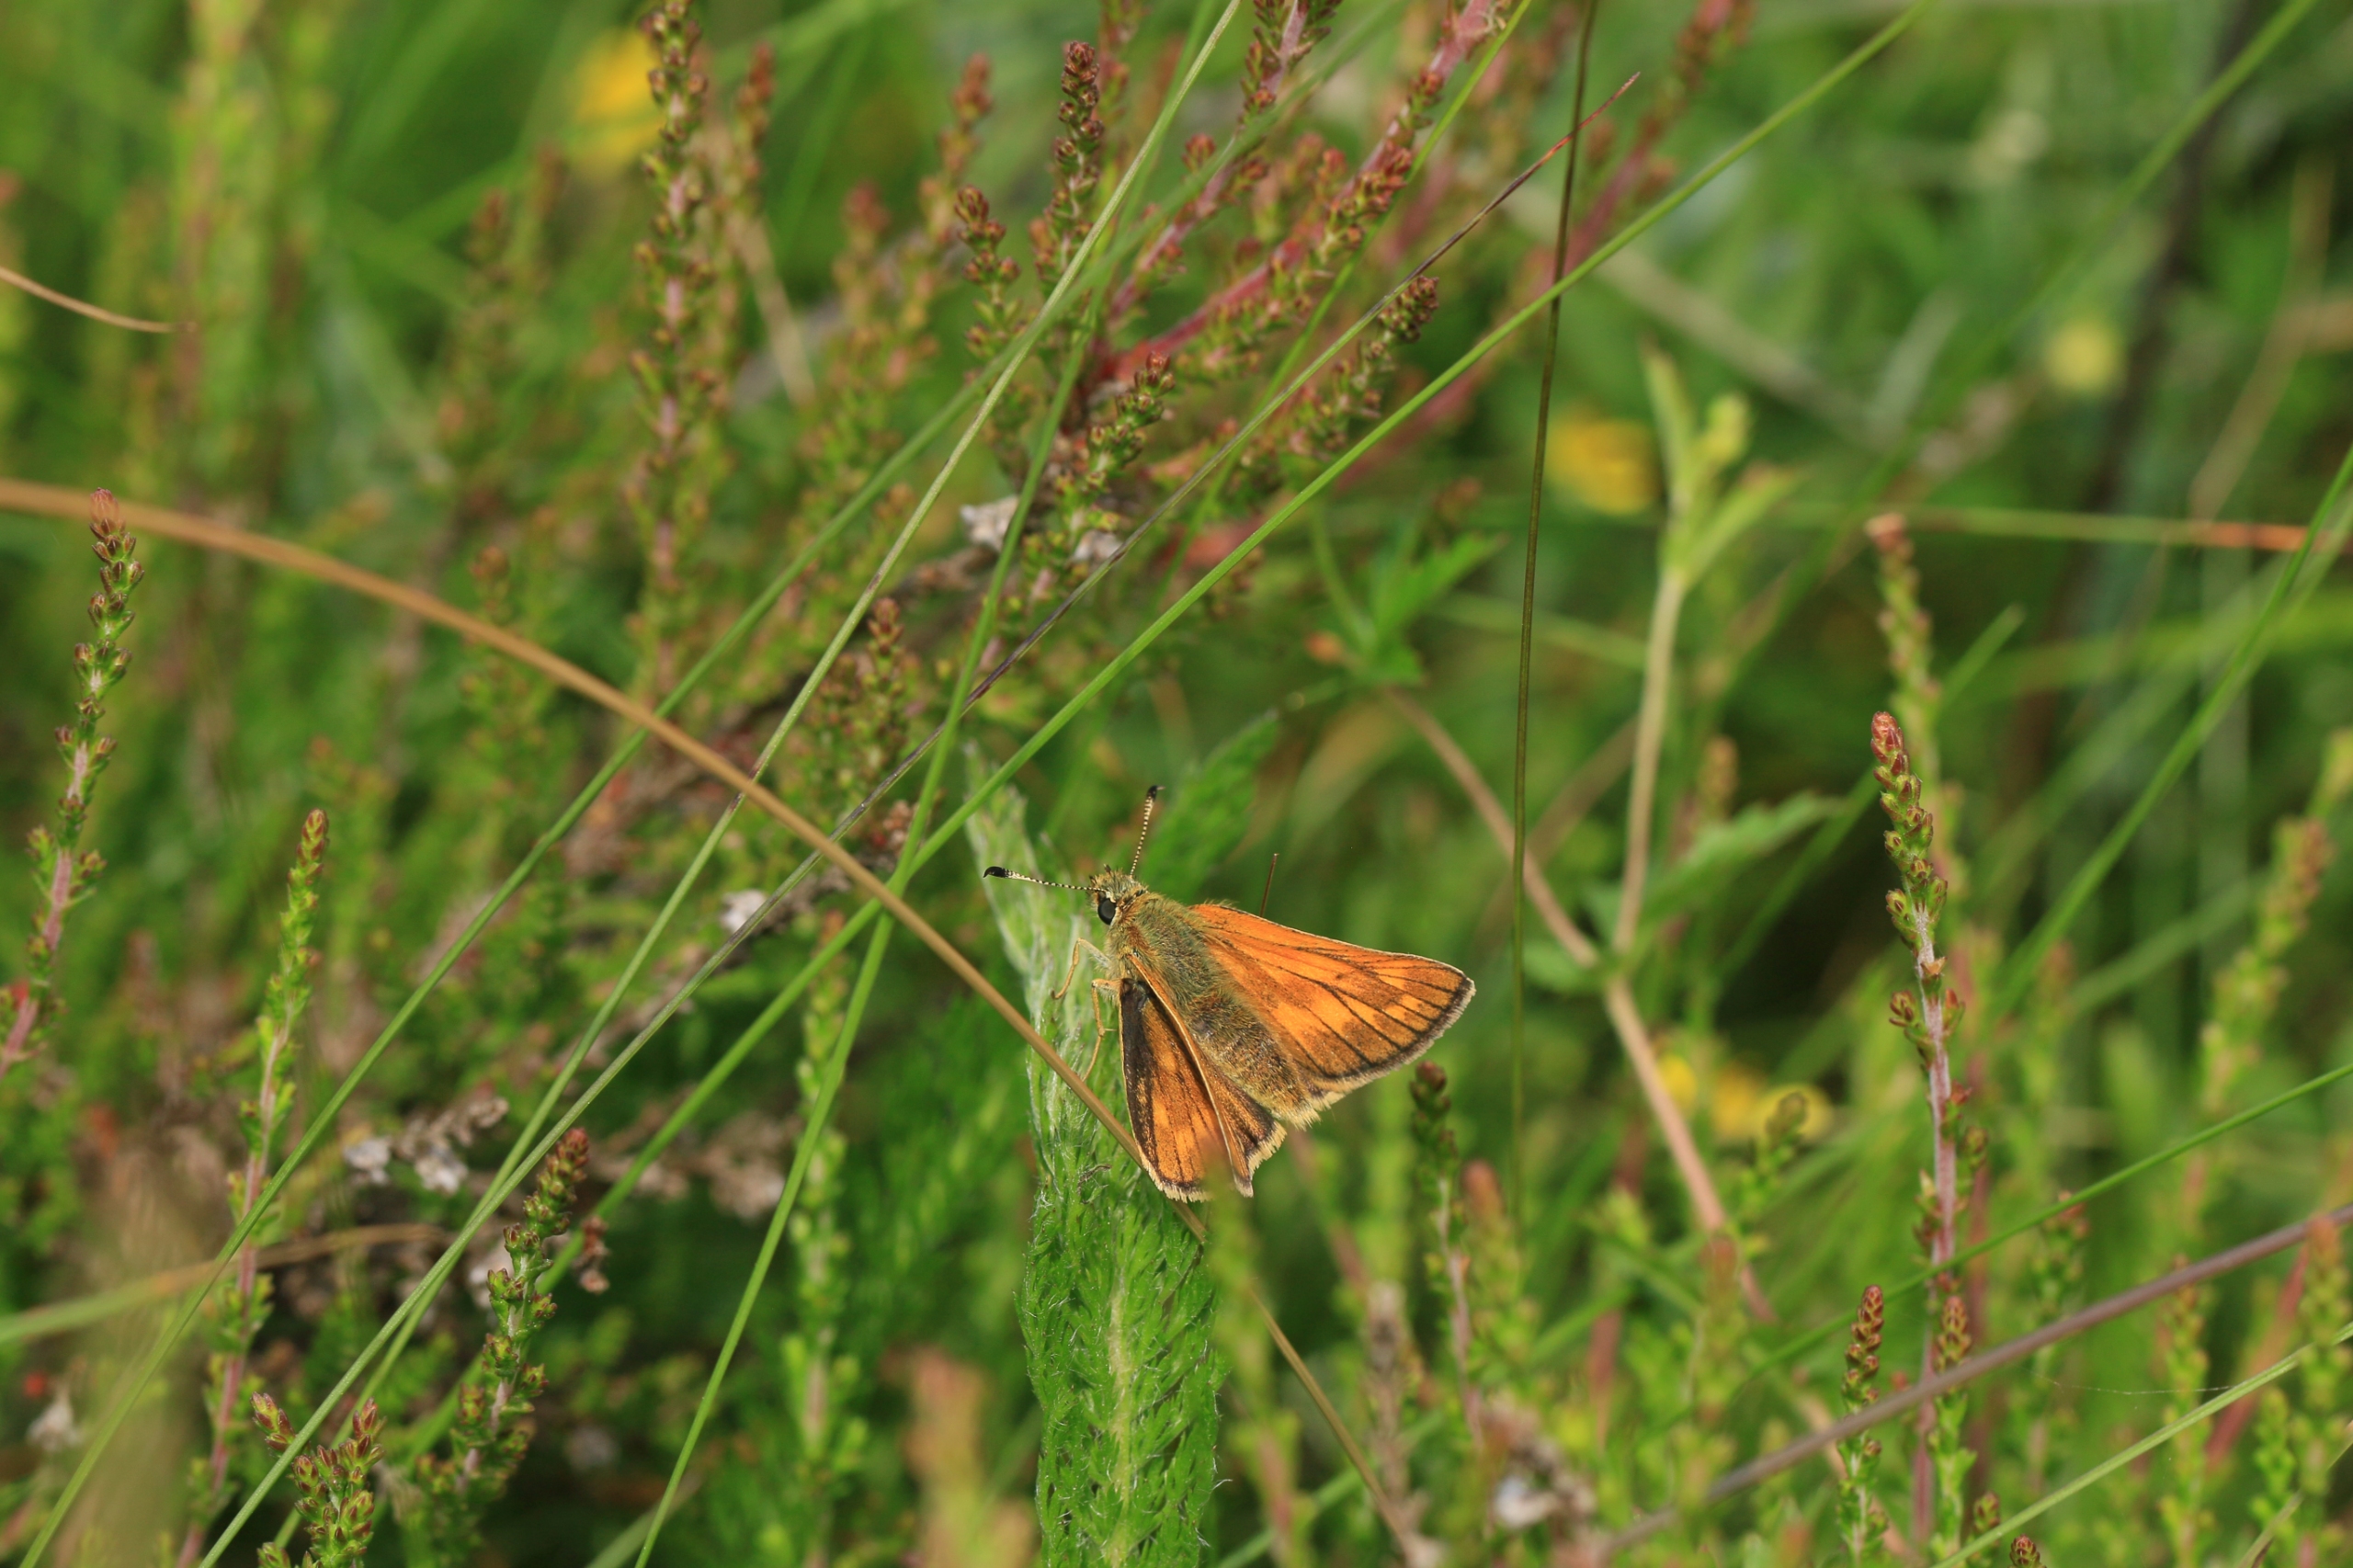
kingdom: Animalia
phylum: Arthropoda
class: Insecta
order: Lepidoptera
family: Hesperiidae
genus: Ochlodes
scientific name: Ochlodes venata
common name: Stor bredpande
